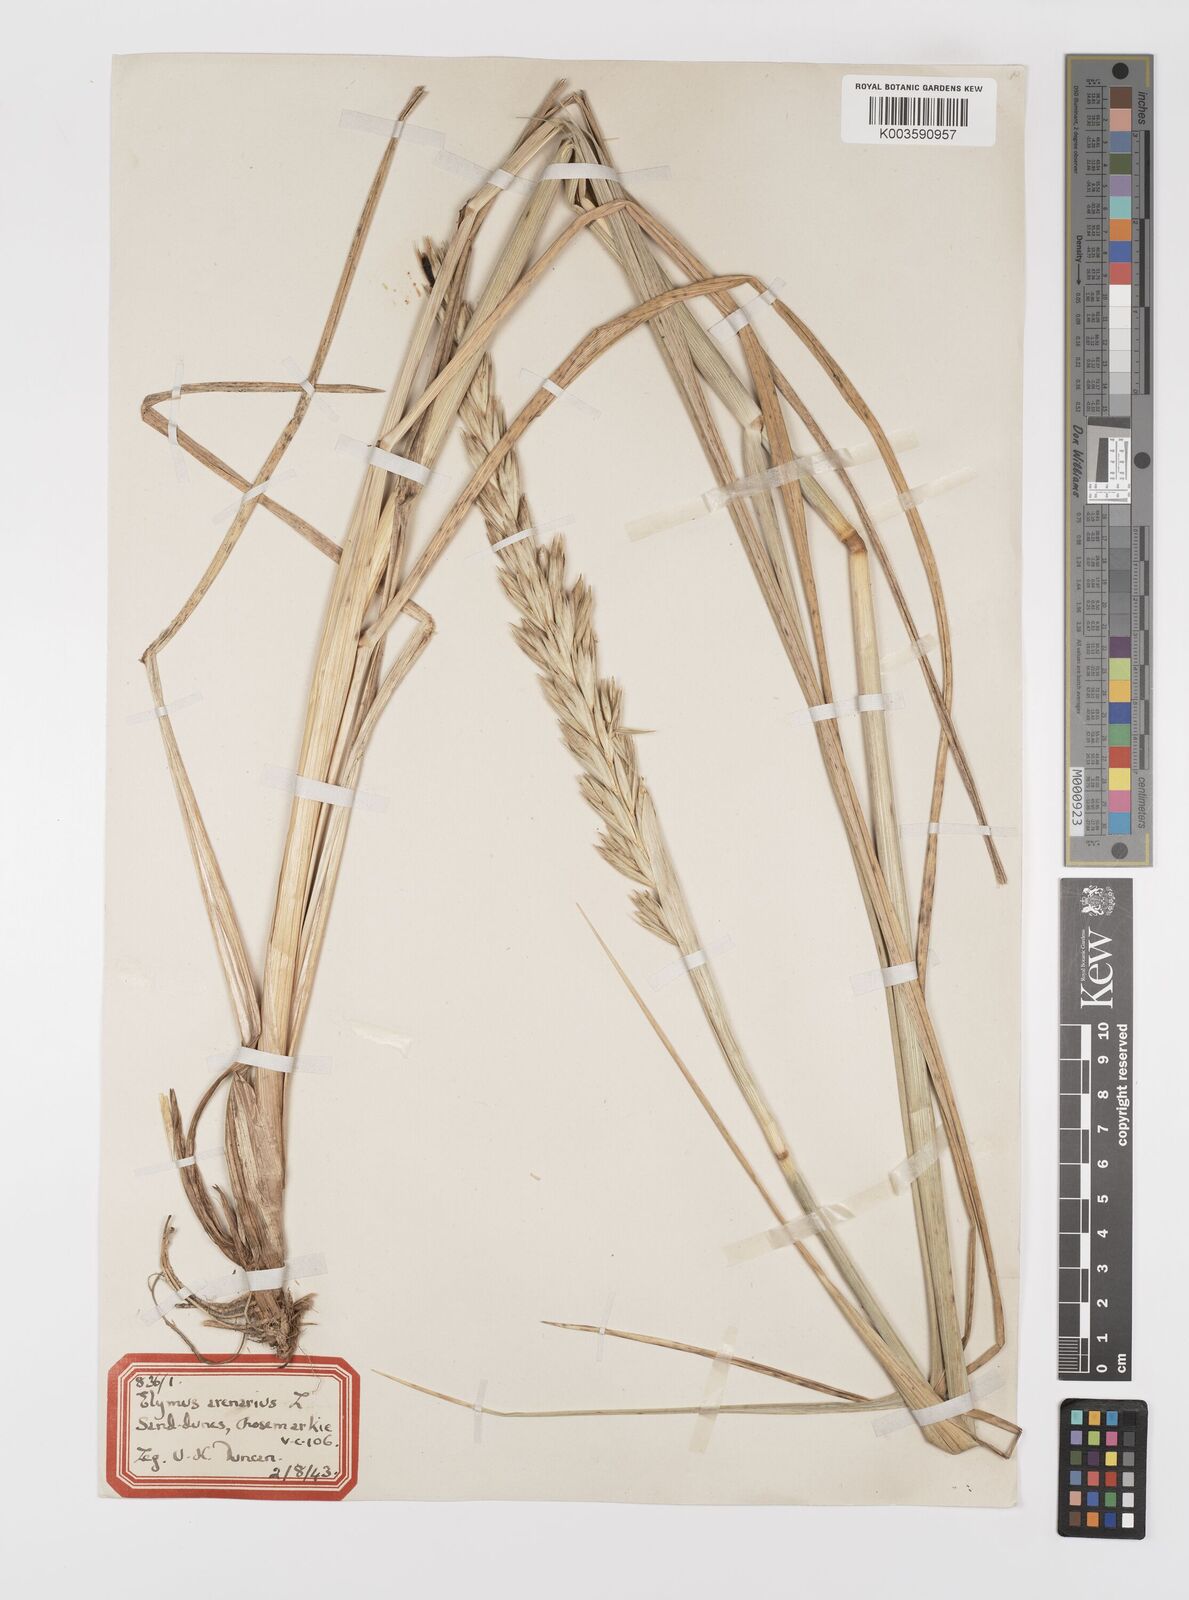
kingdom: Plantae
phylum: Tracheophyta
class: Liliopsida
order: Poales
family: Poaceae
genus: Leymus
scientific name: Leymus arenarius
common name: Lyme-grass
